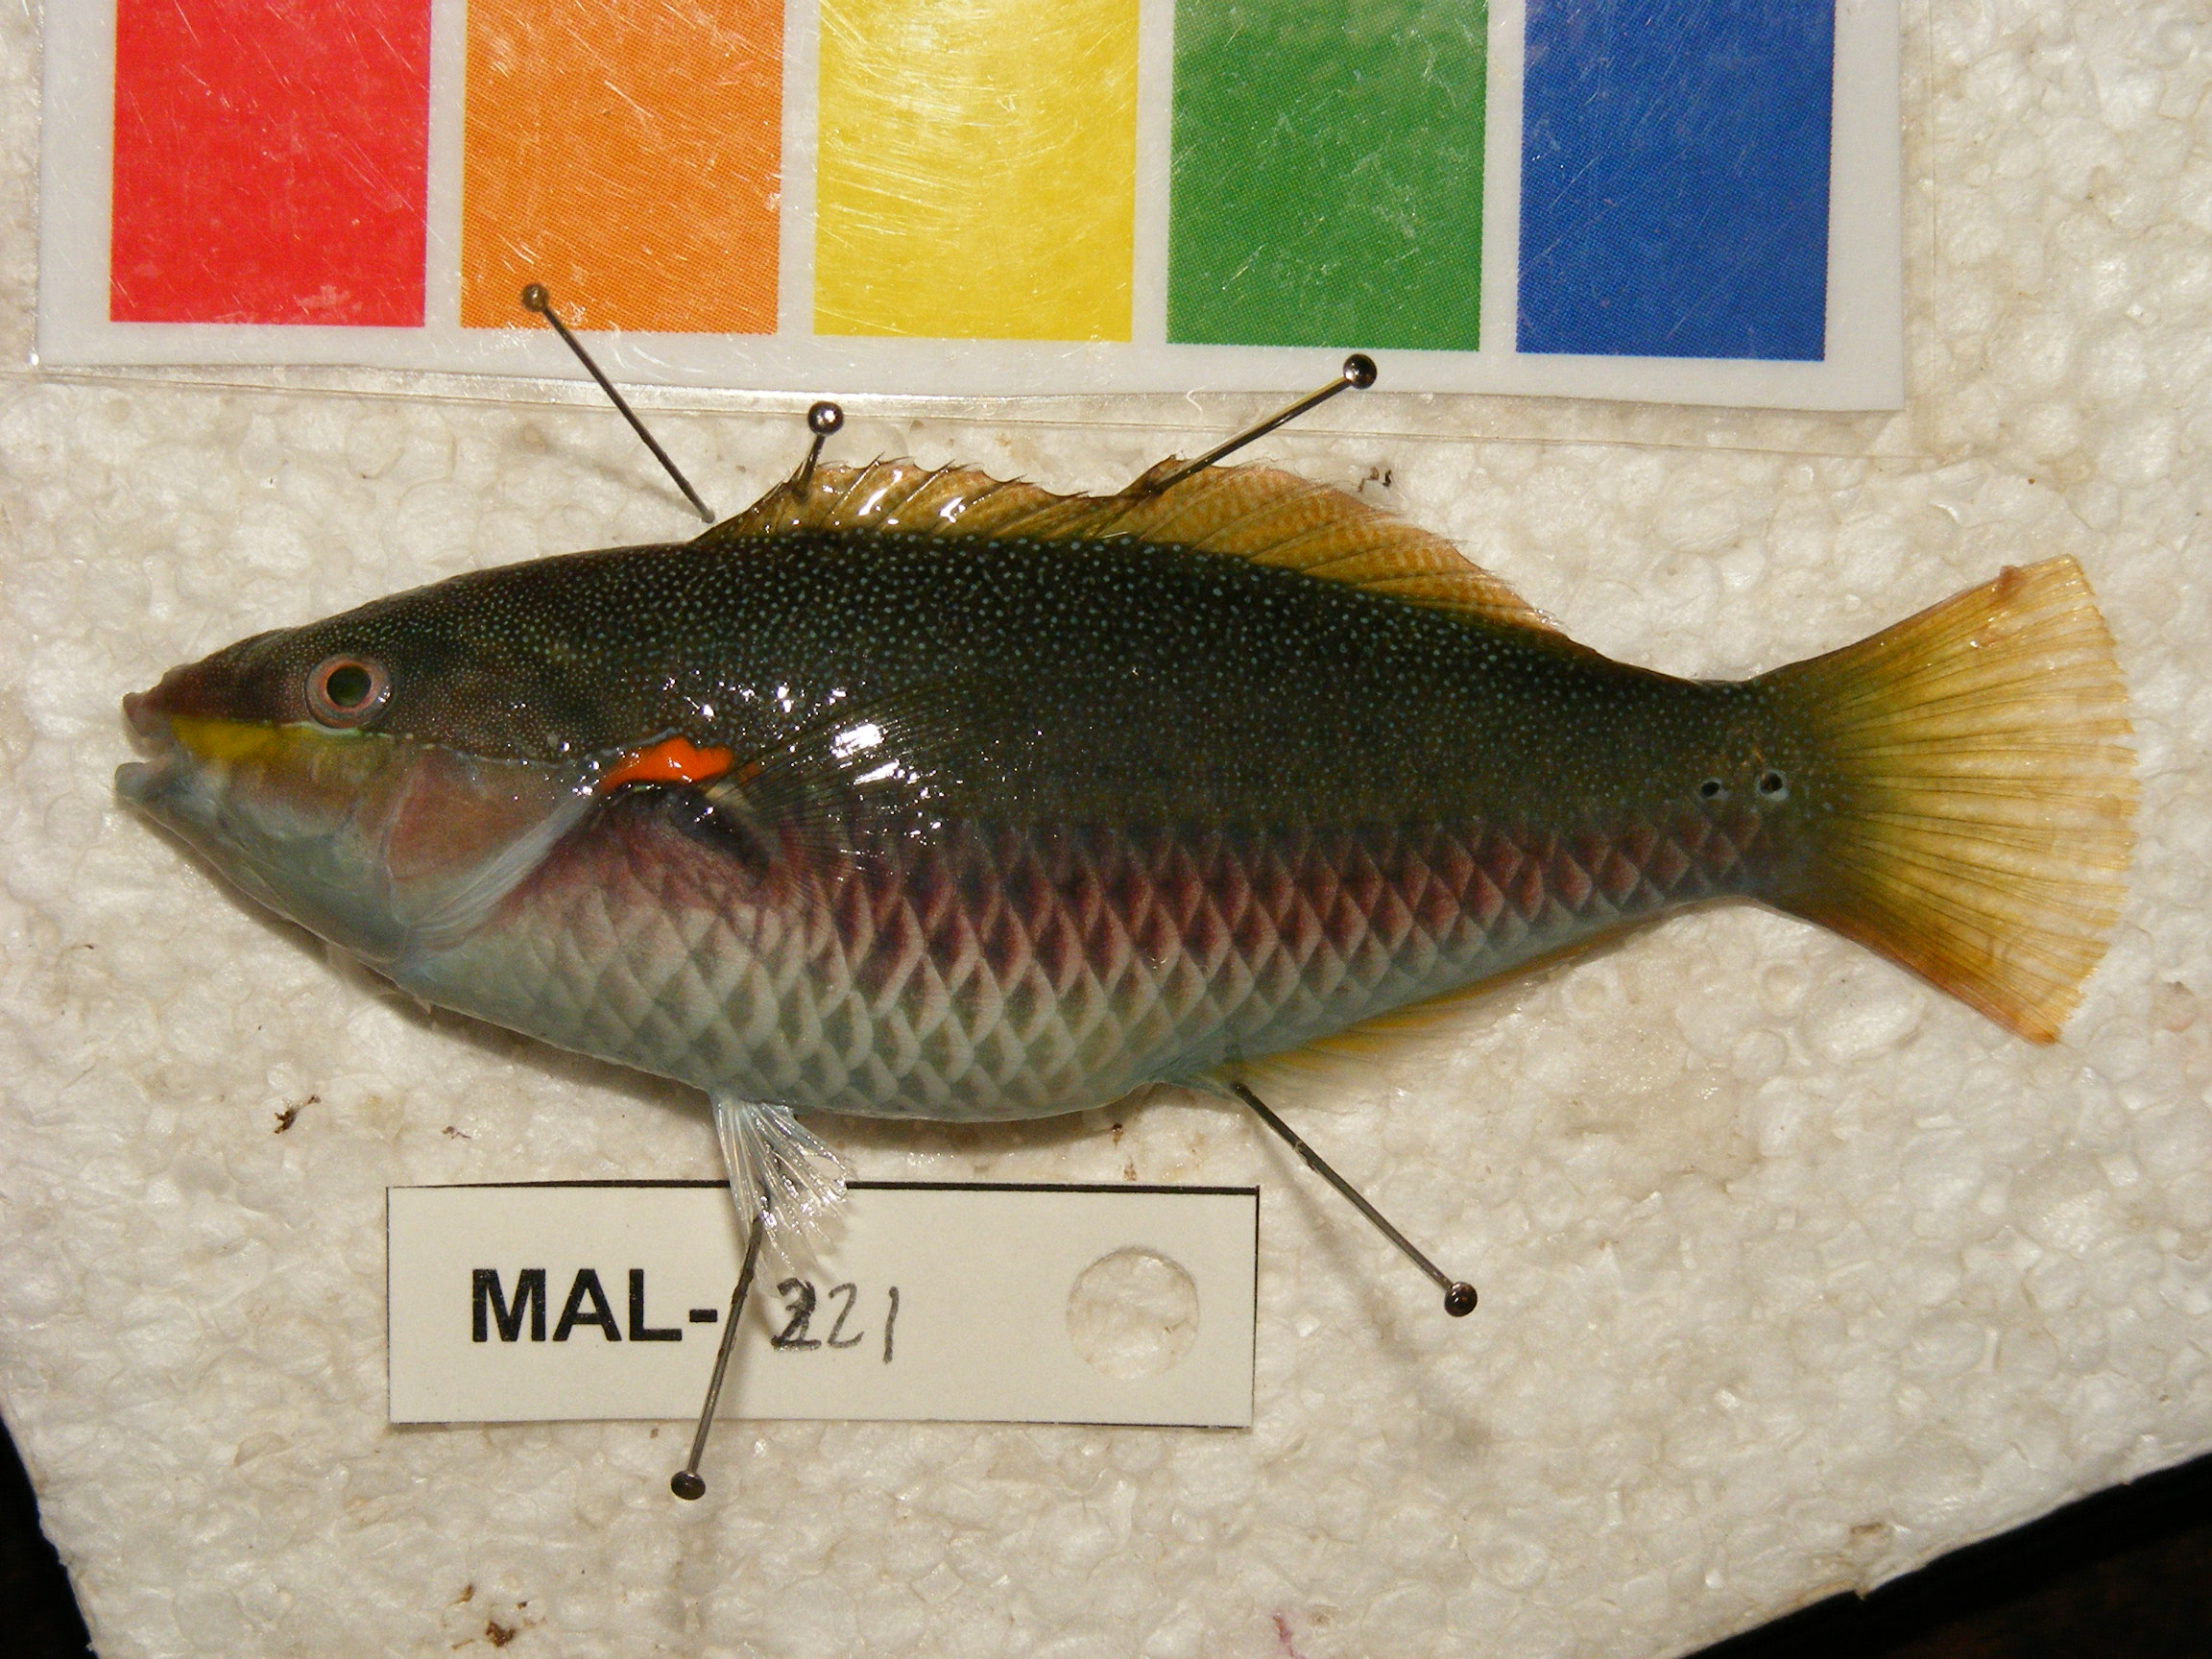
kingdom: Animalia
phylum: Chordata
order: Perciformes
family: Labridae
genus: Stethojulis
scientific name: Stethojulis albovittata
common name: Bluelined wrasse
